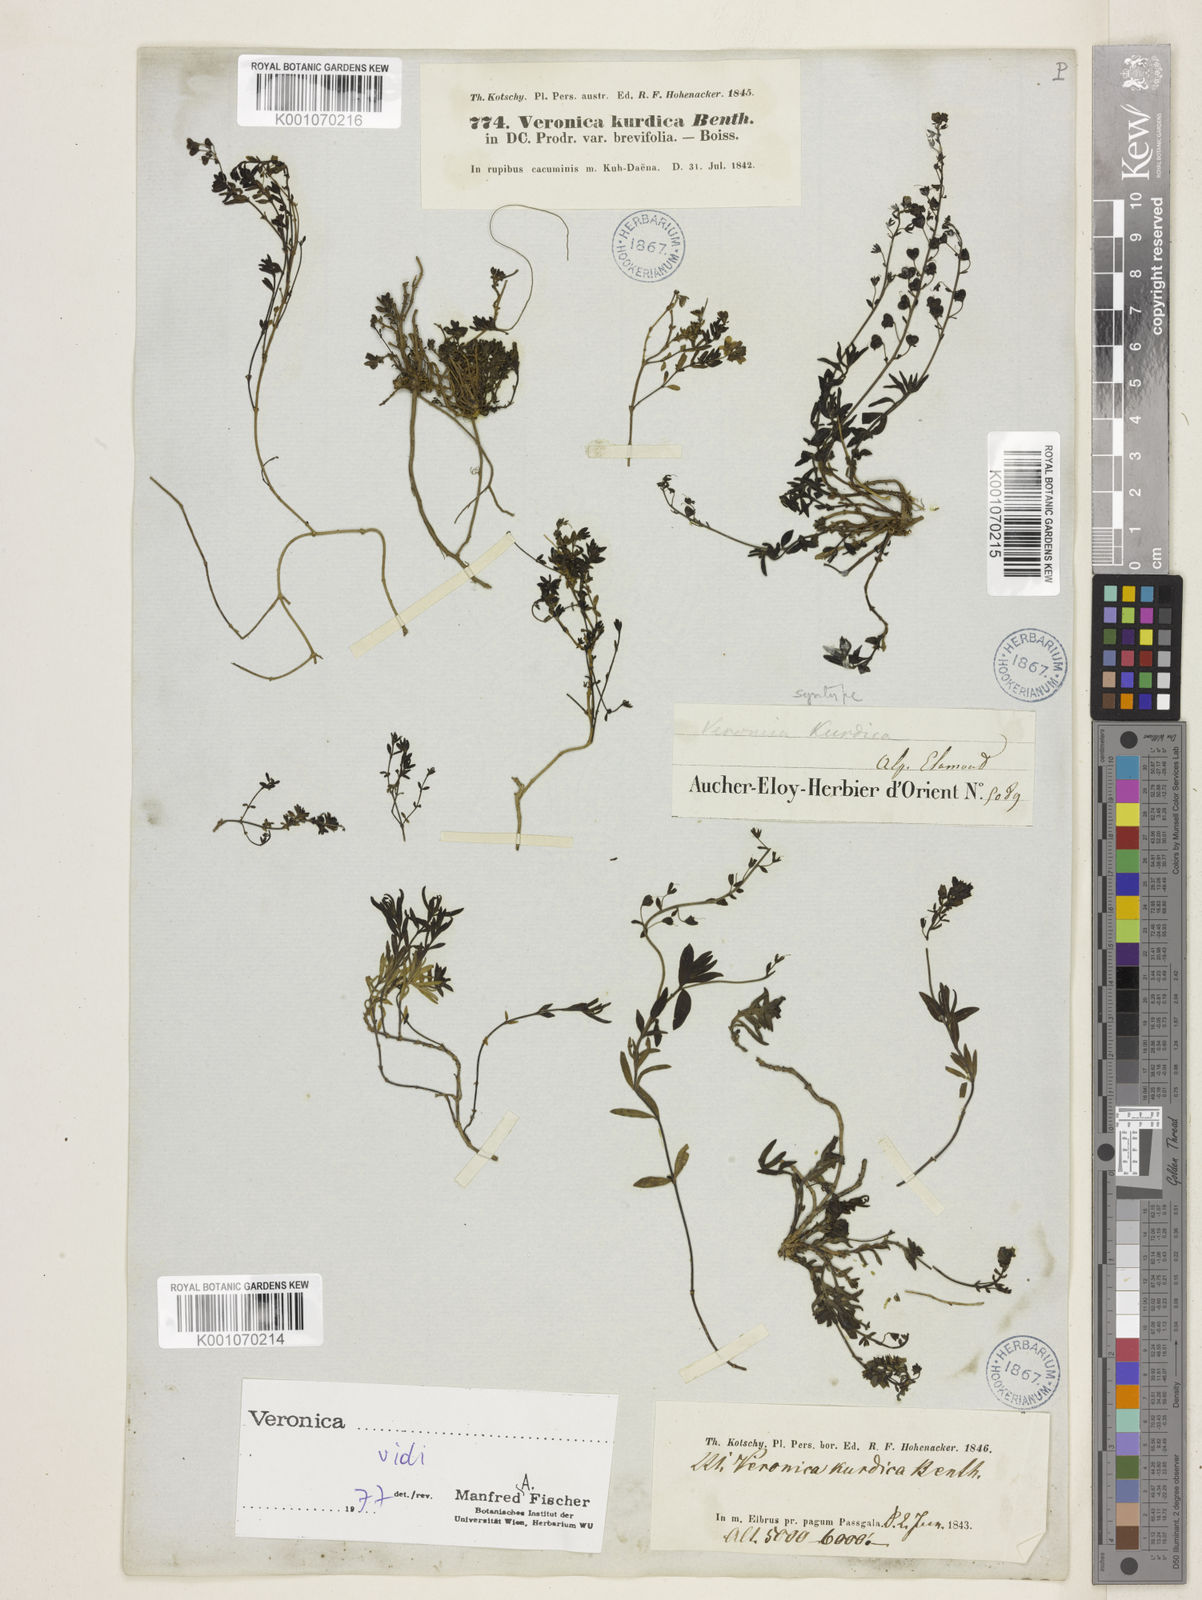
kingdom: Plantae
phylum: Tracheophyta
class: Magnoliopsida
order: Lamiales
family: Plantaginaceae
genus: Veronica
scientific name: Veronica orientalis
